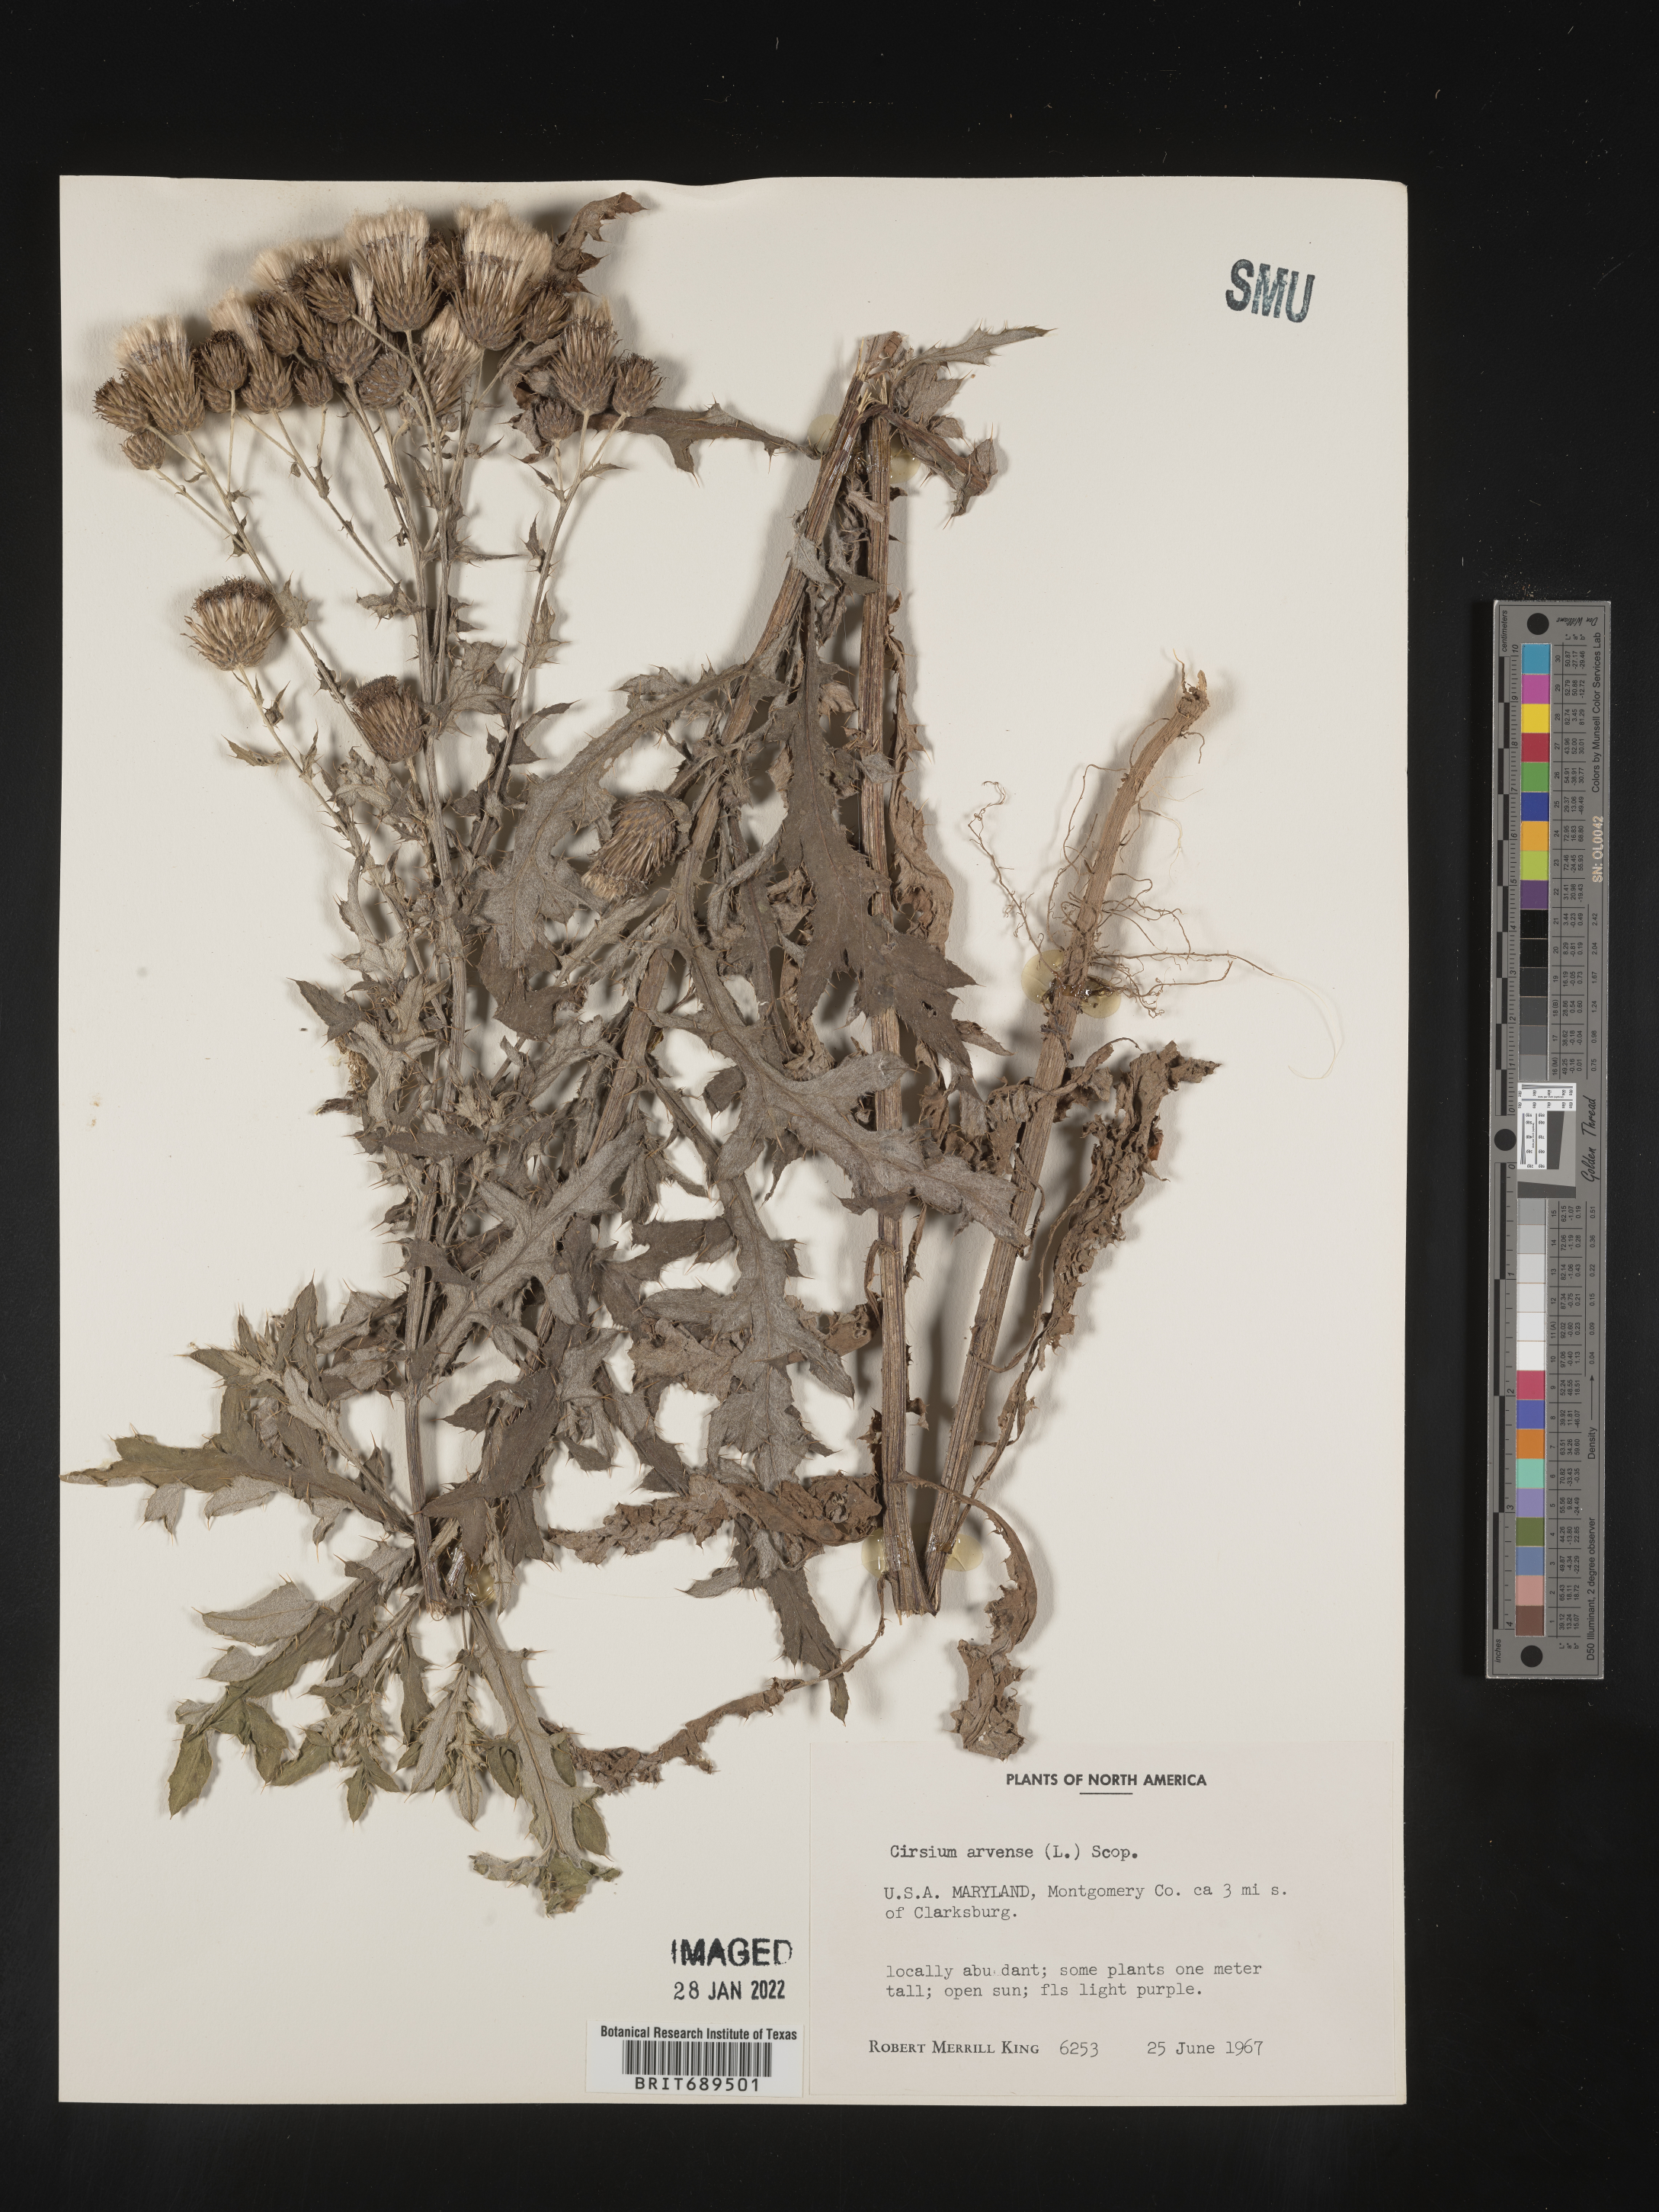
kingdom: Plantae
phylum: Tracheophyta
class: Magnoliopsida
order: Asterales
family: Asteraceae
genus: Cirsium
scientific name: Cirsium arvense
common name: Creeping thistle
